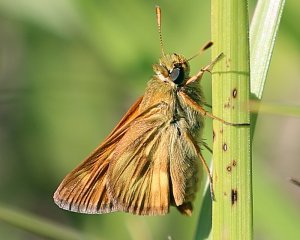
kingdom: Animalia
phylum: Arthropoda
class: Insecta
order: Lepidoptera
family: Hesperiidae
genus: Polites
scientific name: Polites
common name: Long Dash Skipper
